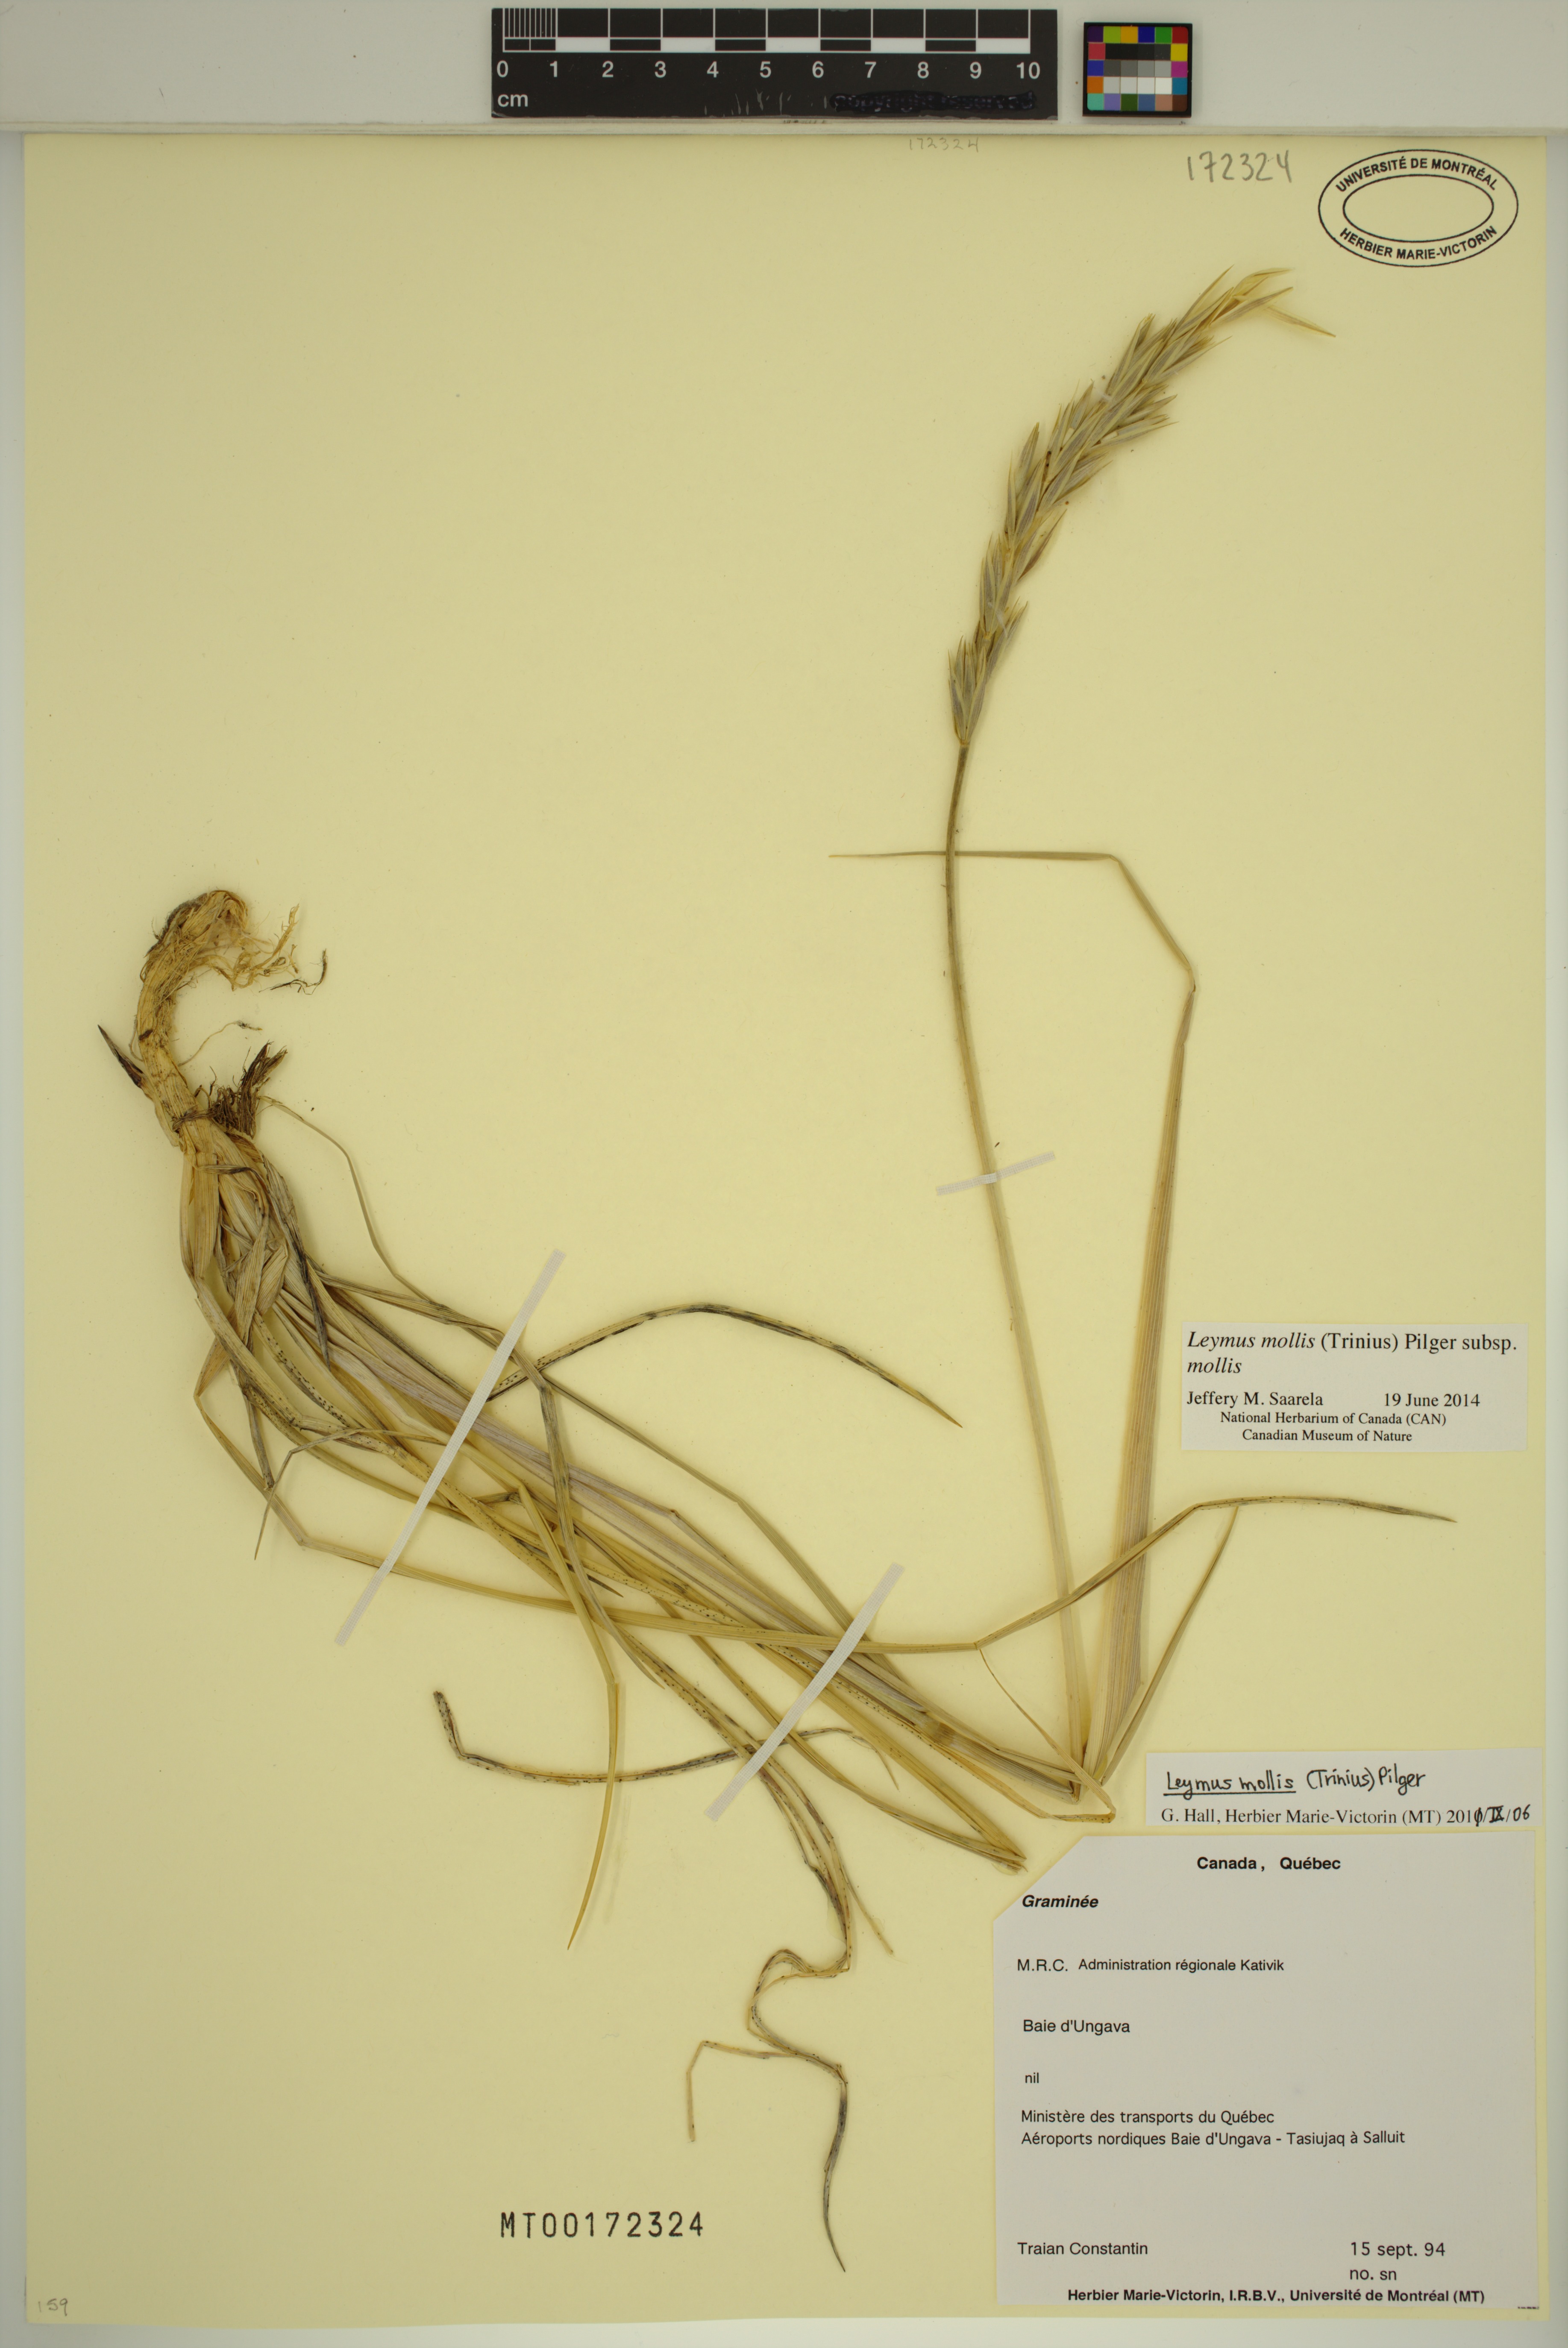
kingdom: Plantae
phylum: Tracheophyta
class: Liliopsida
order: Poales
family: Poaceae
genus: Leymus
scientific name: Leymus mollis
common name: American dune grass
